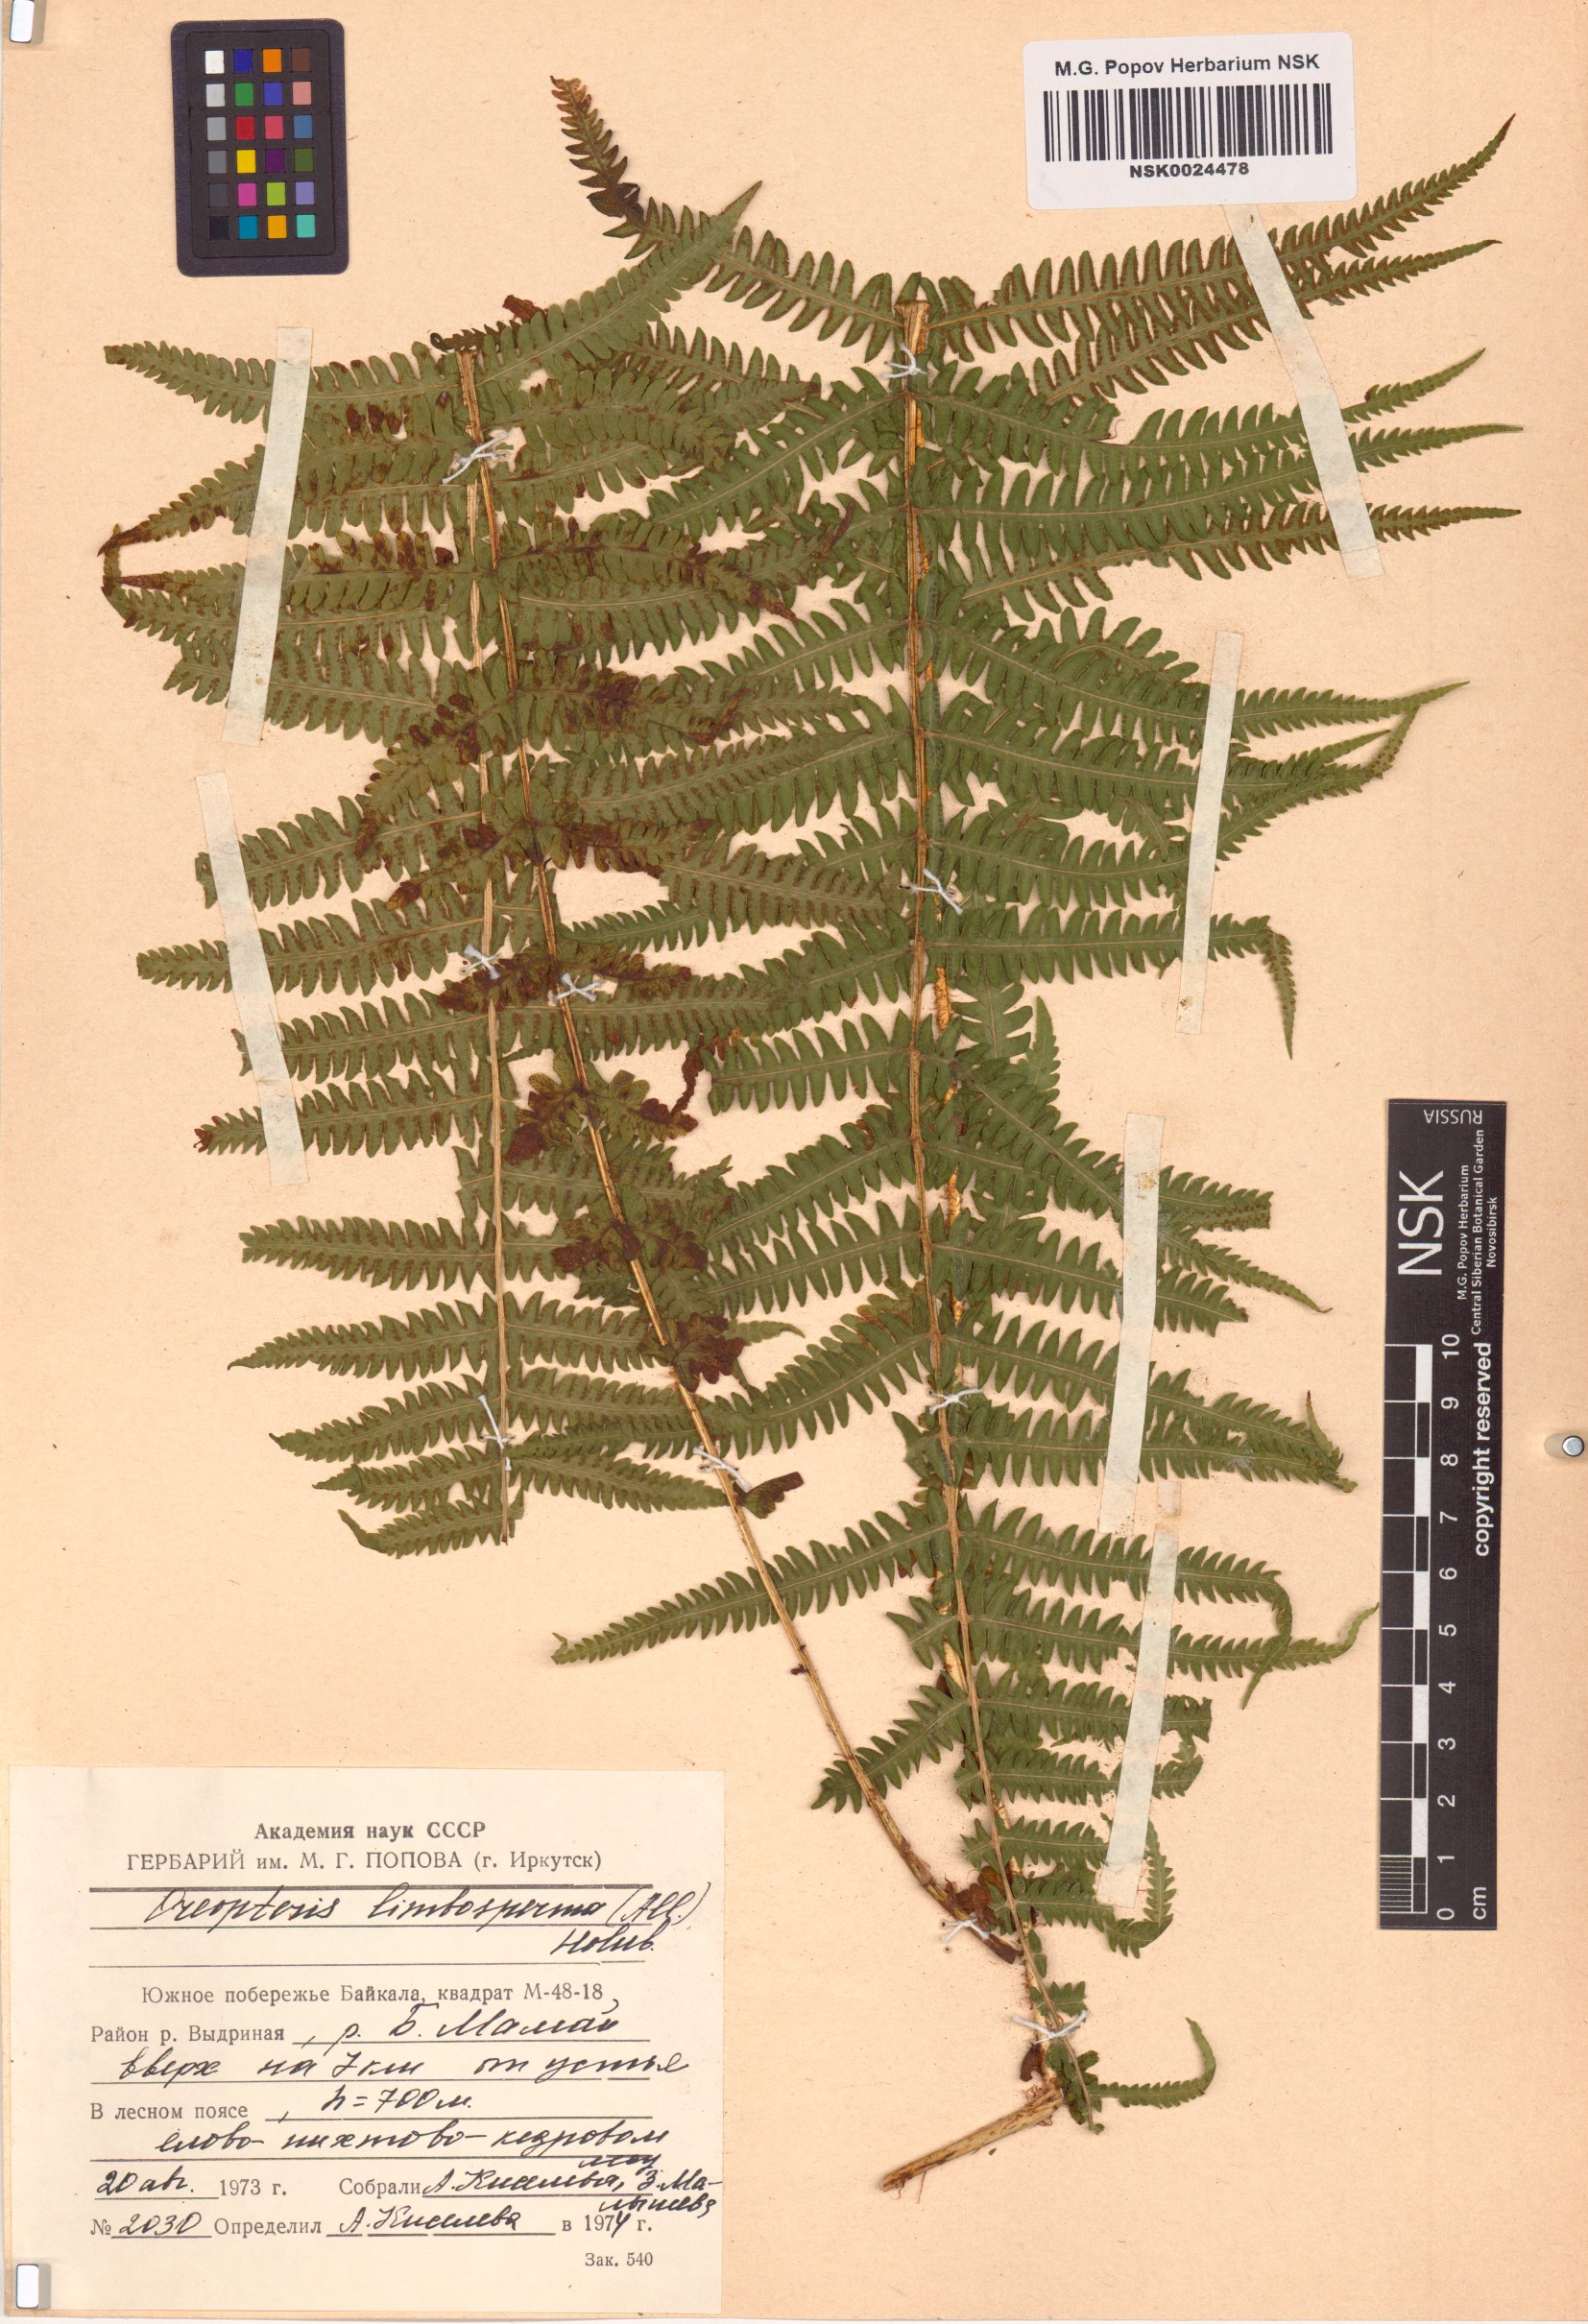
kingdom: Plantae
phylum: Tracheophyta
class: Polypodiopsida
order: Polypodiales
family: Thelypteridaceae
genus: Oreopteris
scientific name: Oreopteris limbosperma
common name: Lemon-scented fern
